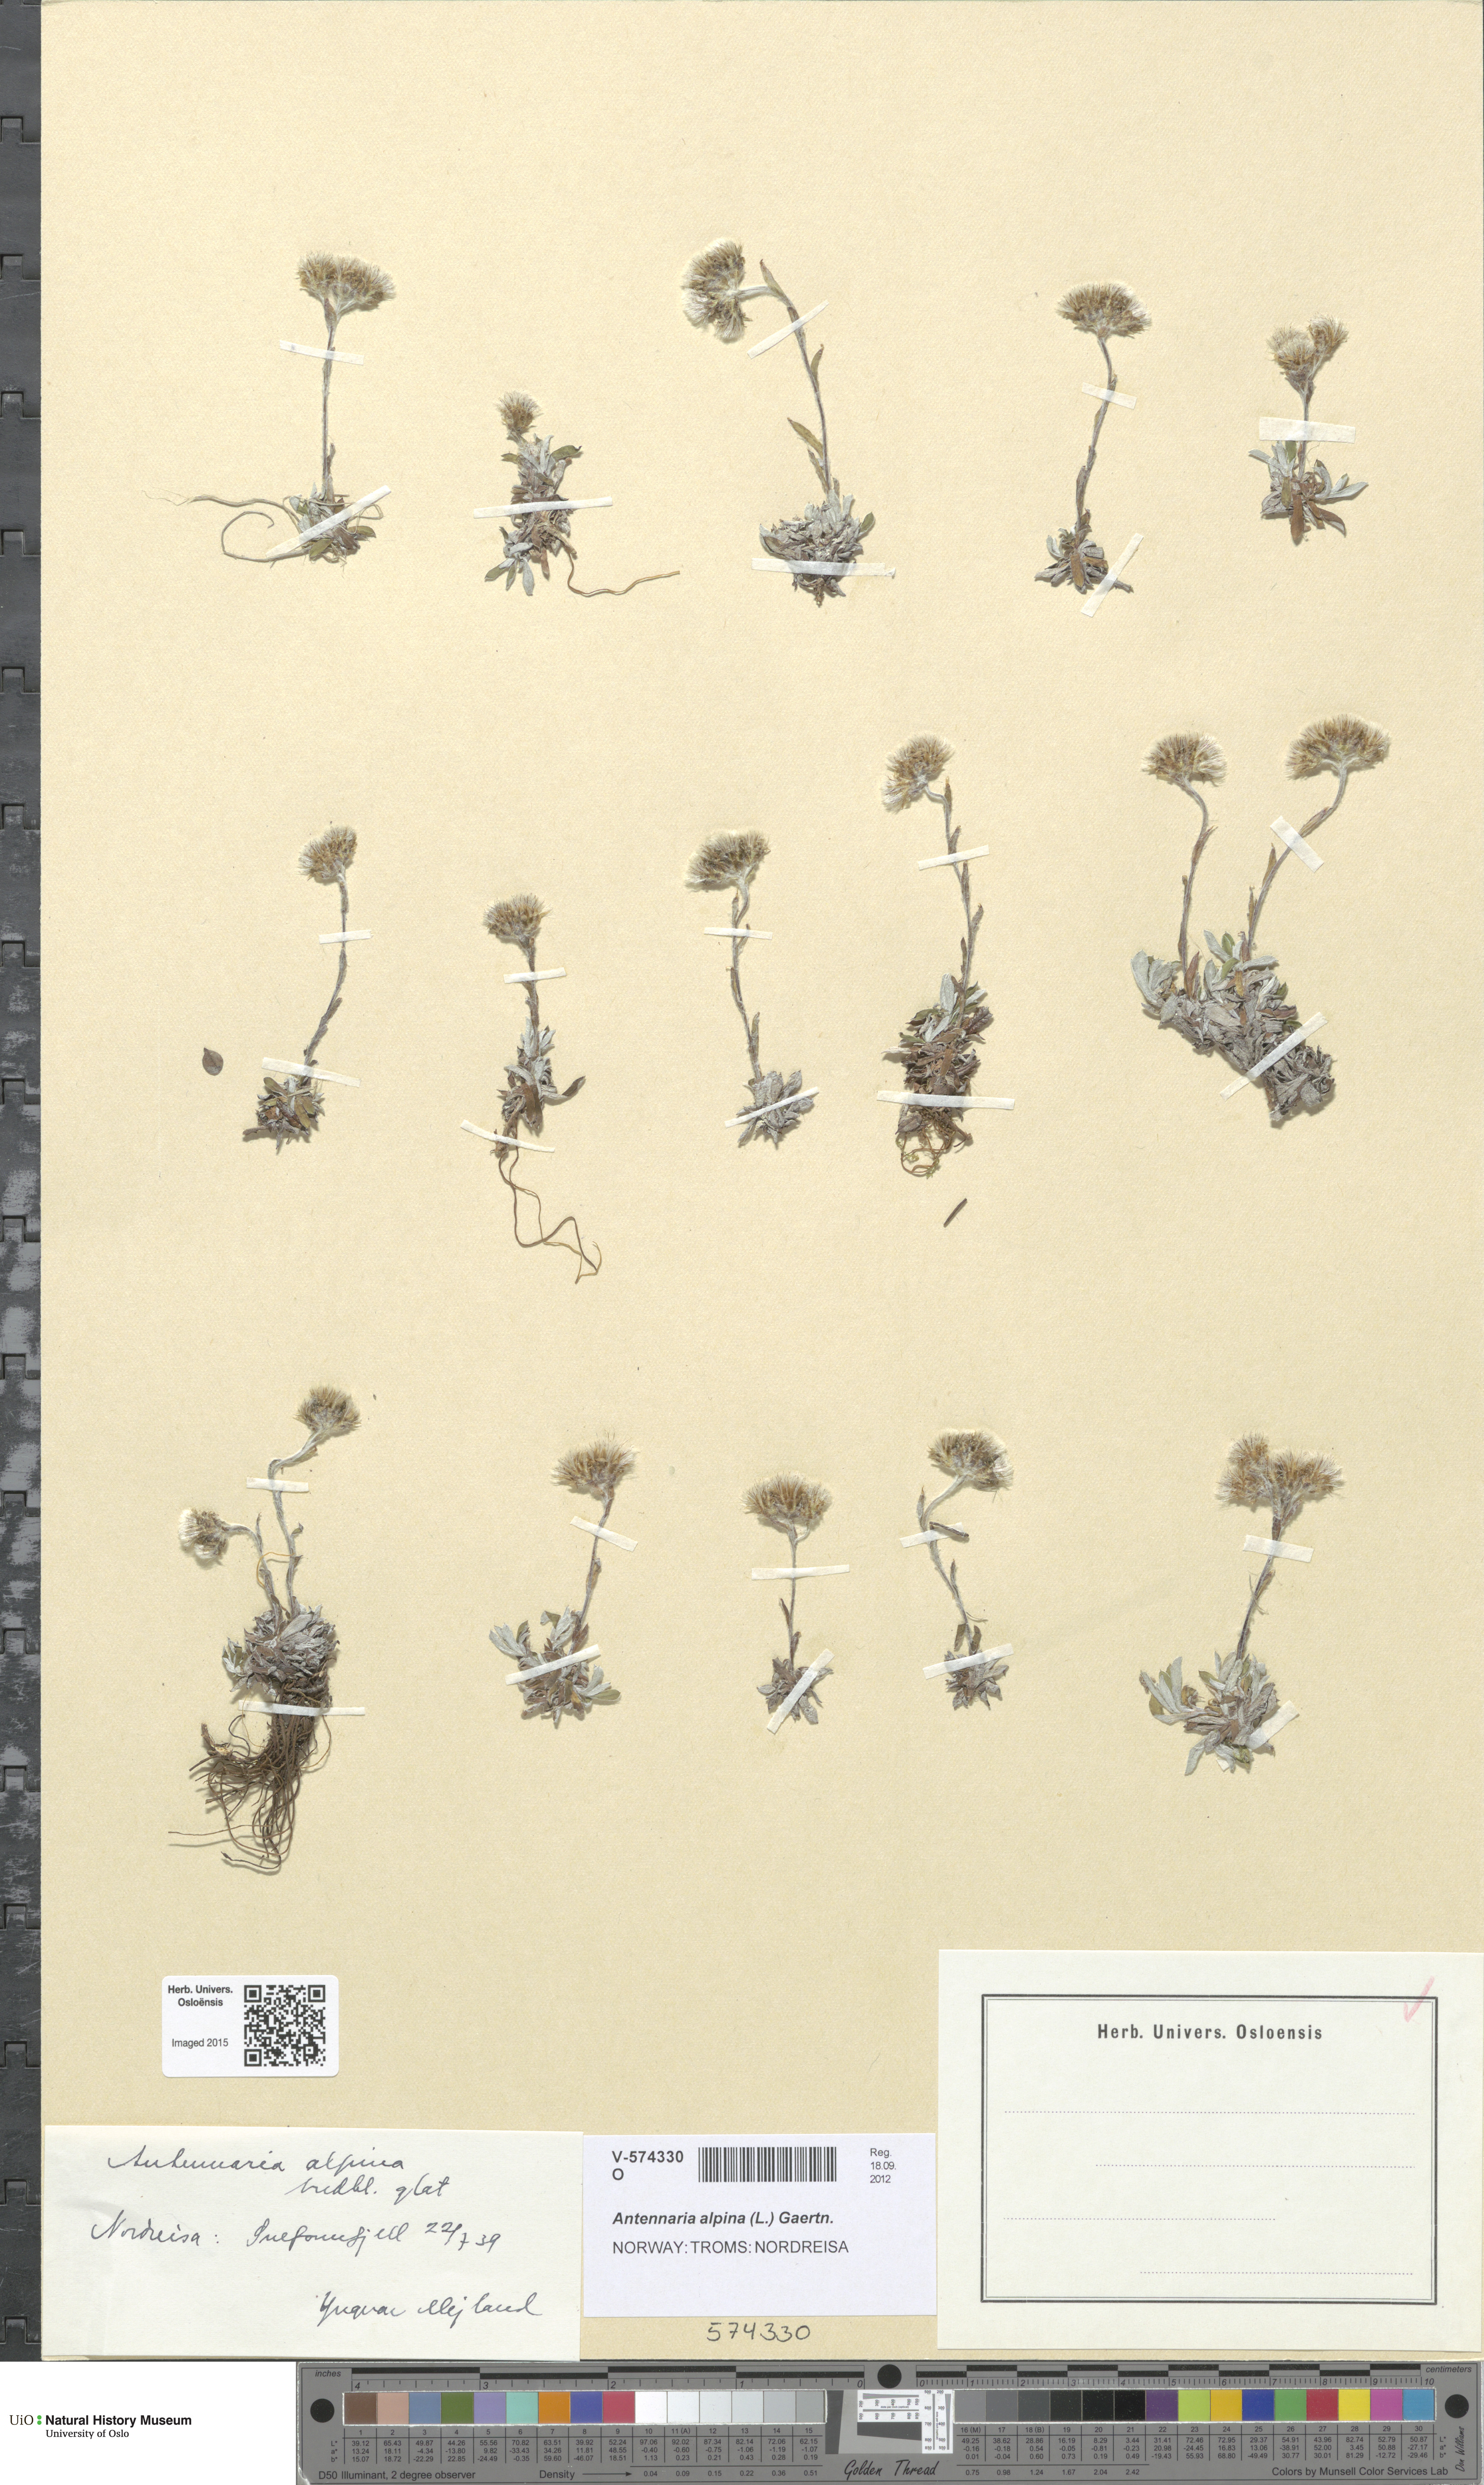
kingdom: Plantae
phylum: Tracheophyta
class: Magnoliopsida
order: Asterales
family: Asteraceae
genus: Antennaria
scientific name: Antennaria alpina
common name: Alpine pussytoes
